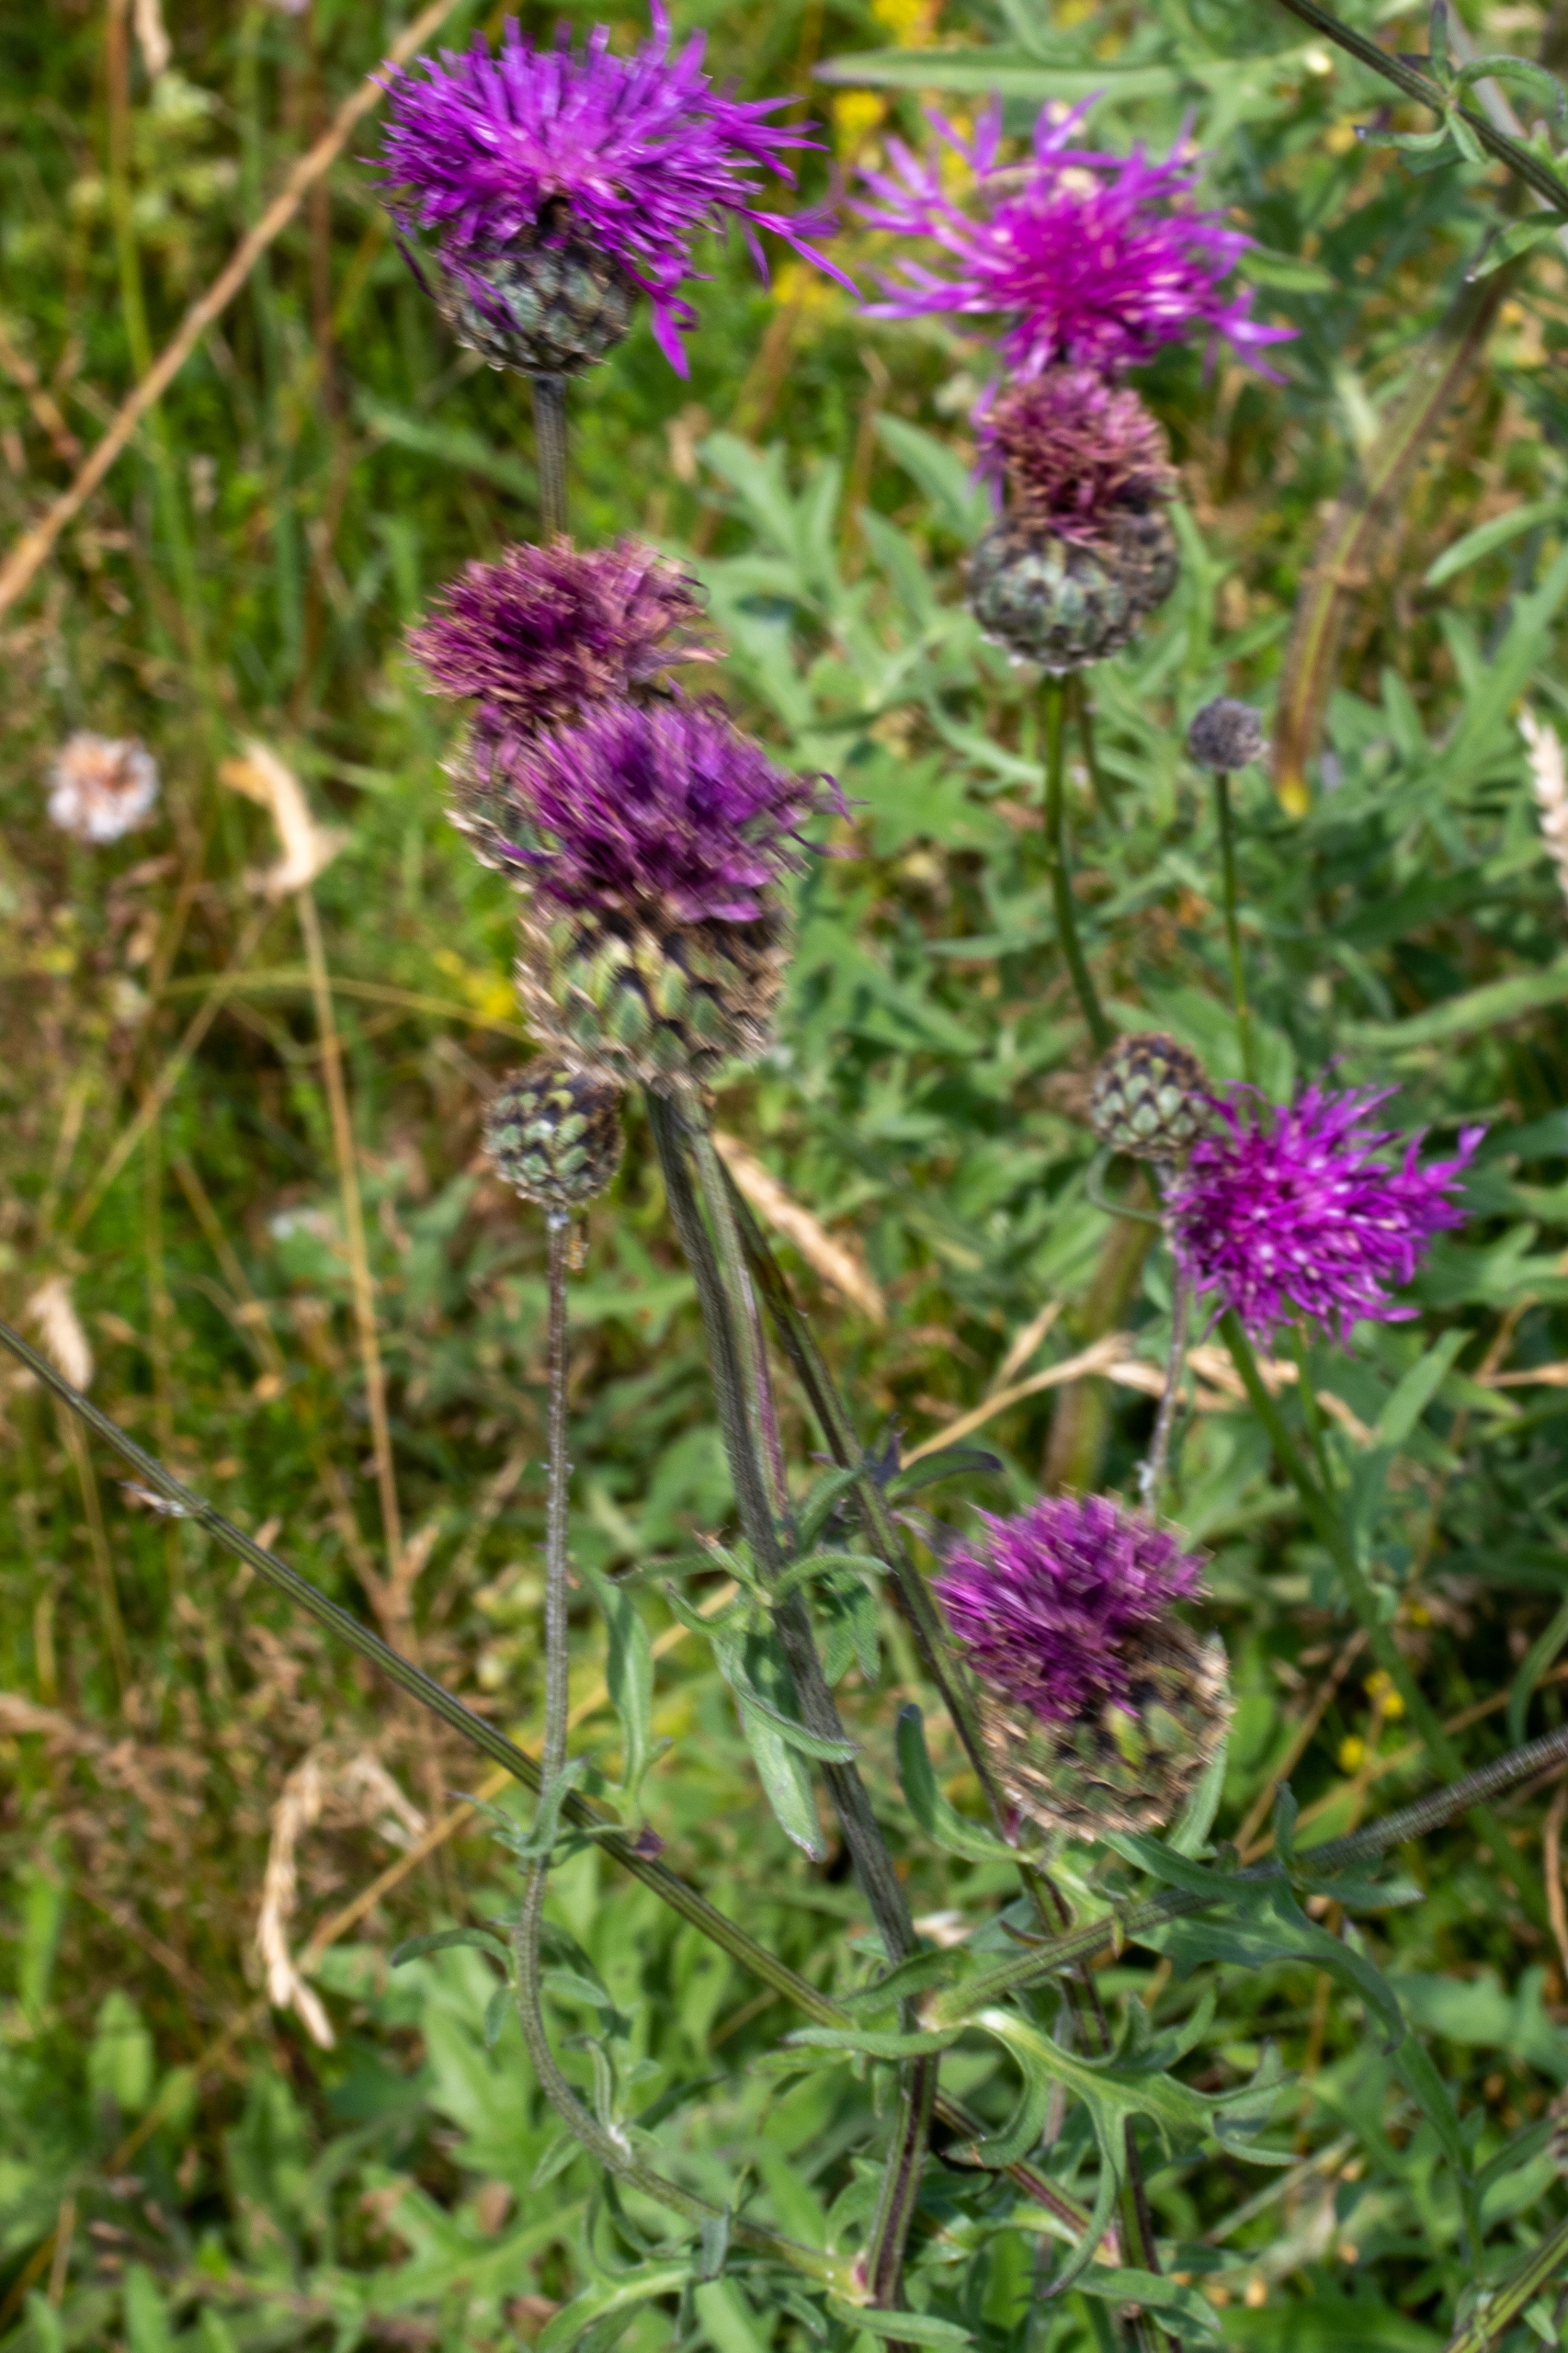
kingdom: Plantae
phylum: Tracheophyta
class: Magnoliopsida
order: Asterales
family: Asteraceae
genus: Centaurea
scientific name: Centaurea scabiosa
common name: Stor knopurt
